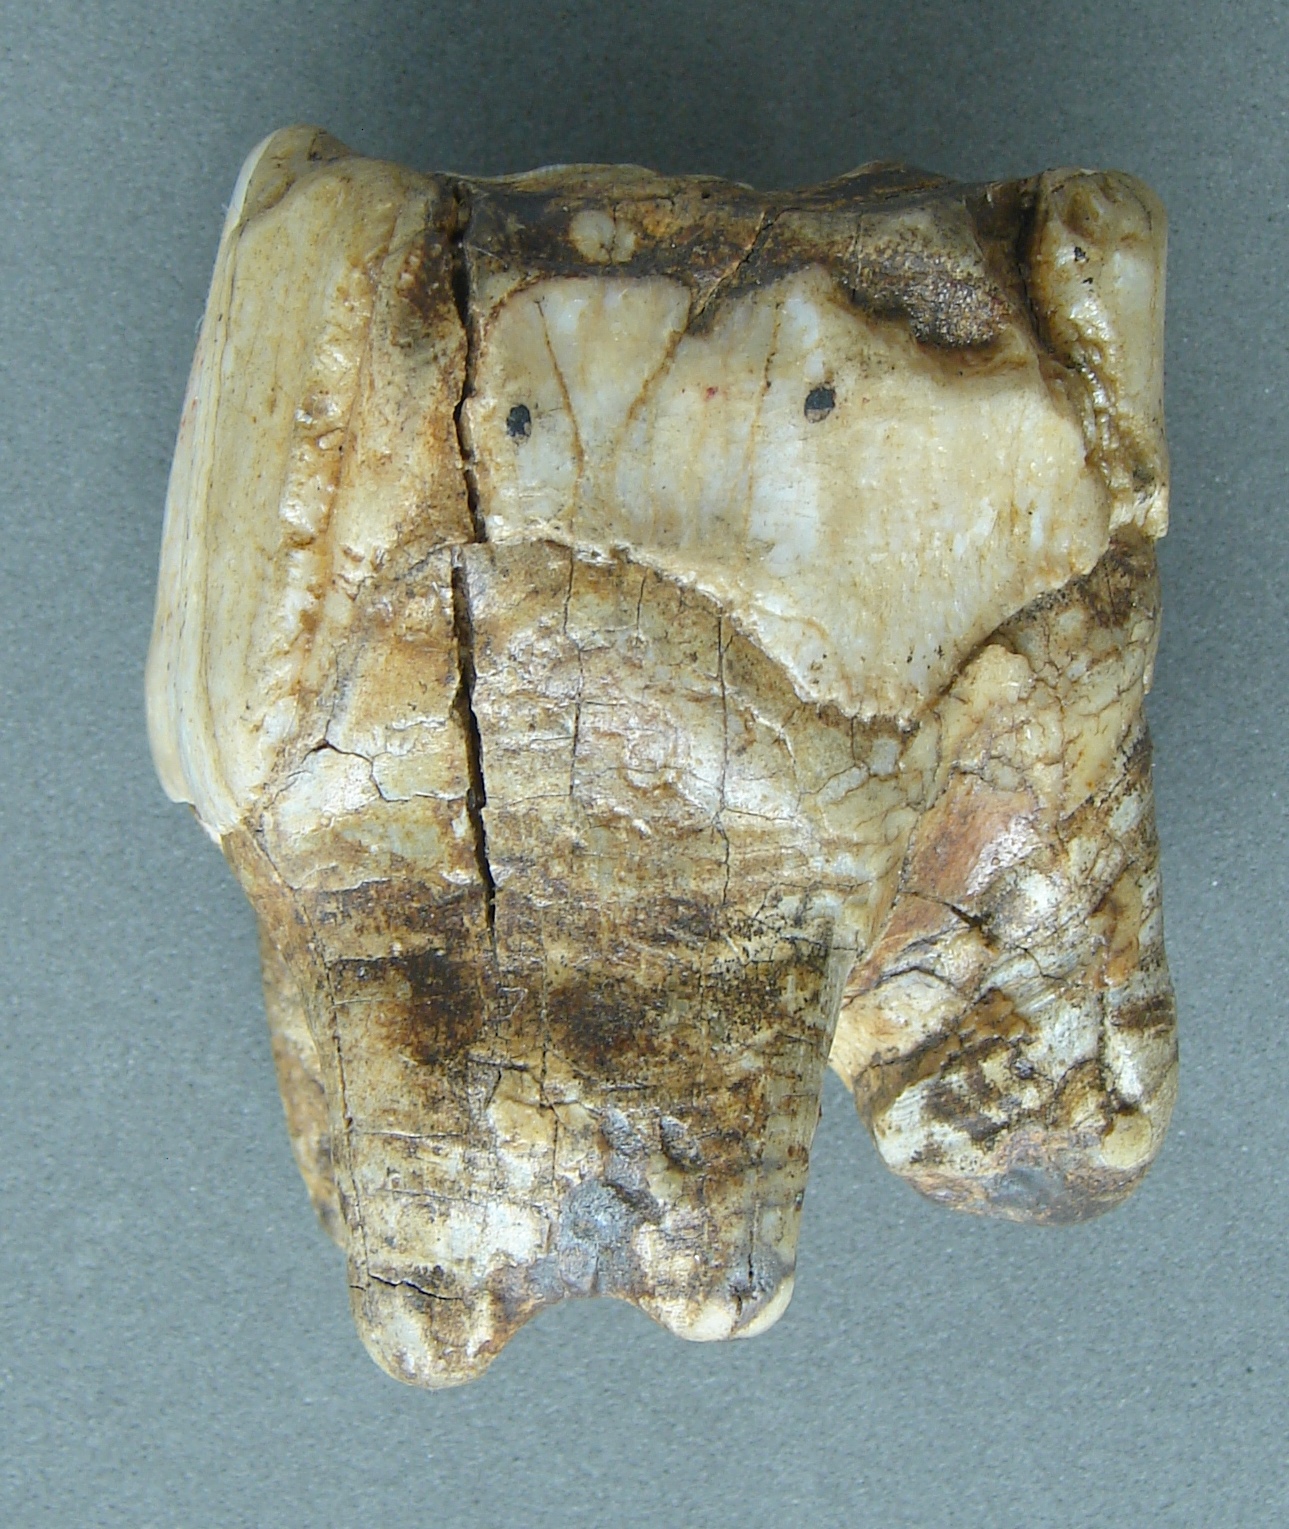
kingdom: Animalia
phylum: Chordata
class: Mammalia
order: Perissodactyla
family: Rhinocerotidae
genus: Rhinoceros
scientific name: Rhinoceros
